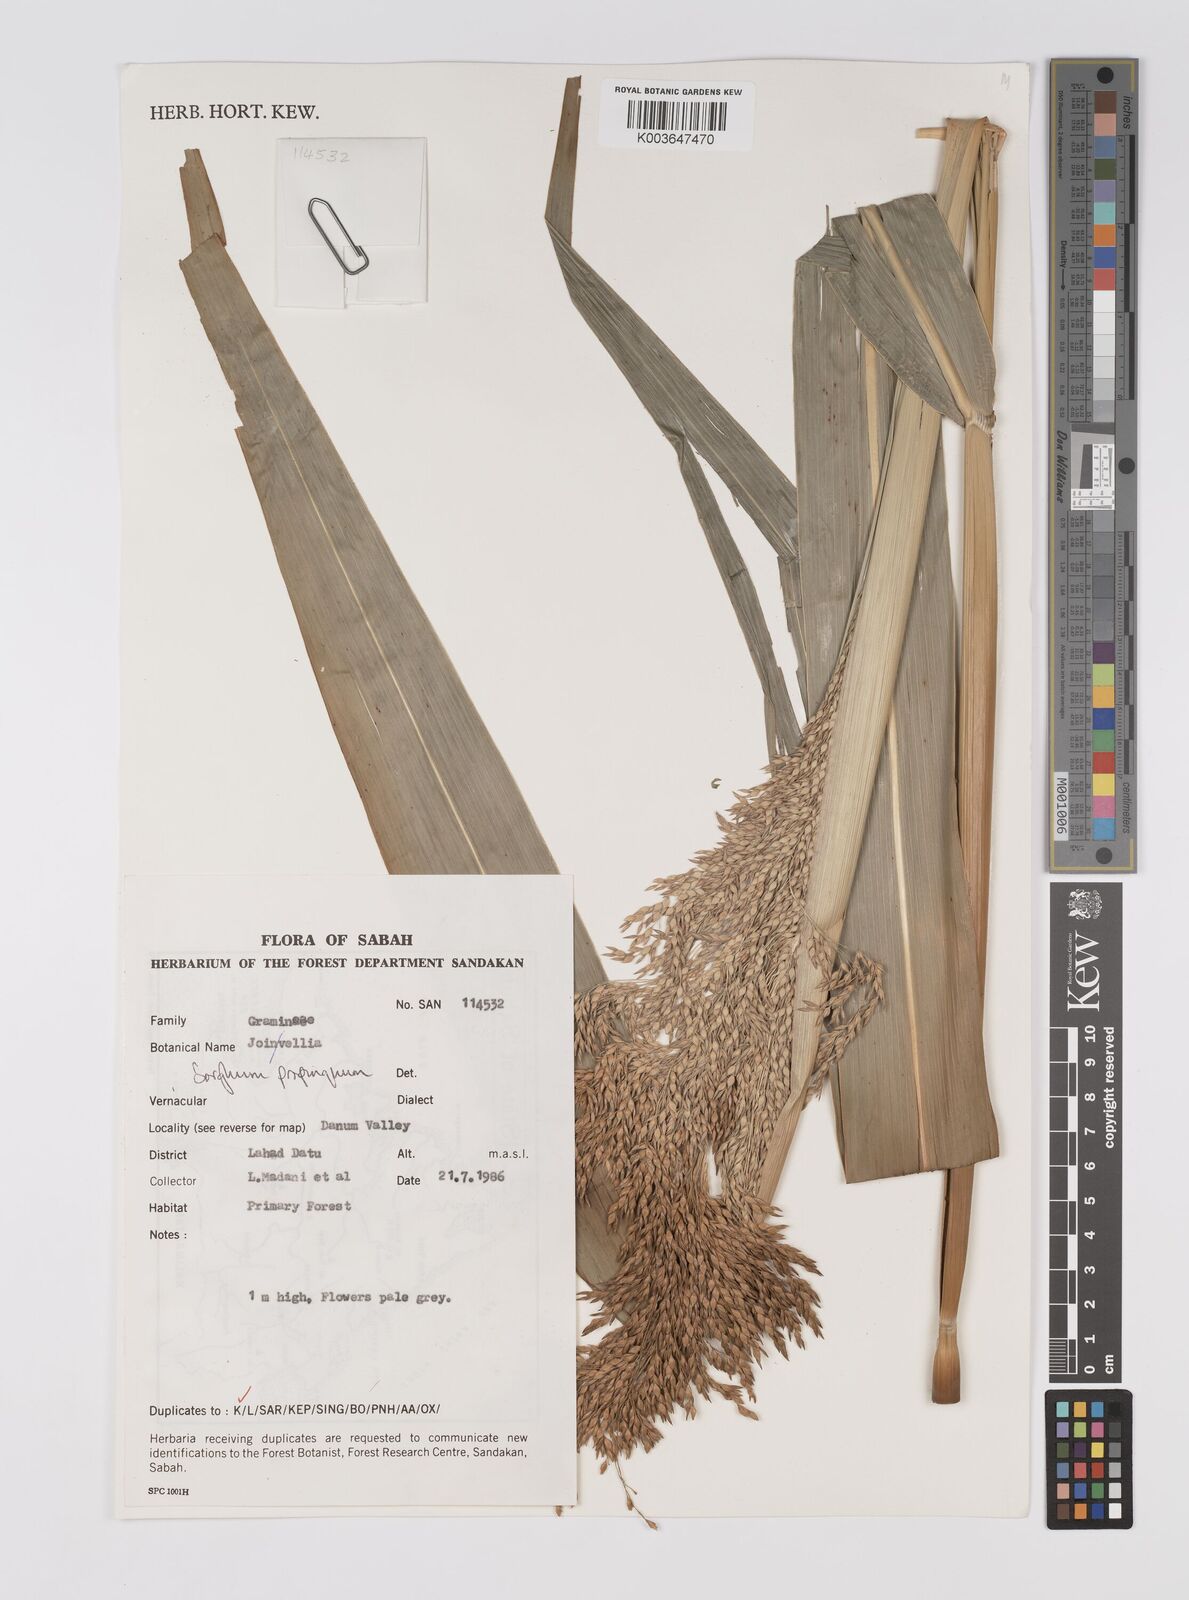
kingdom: Plantae
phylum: Tracheophyta
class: Liliopsida
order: Poales
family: Poaceae
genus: Sorghum
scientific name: Sorghum propinquum
